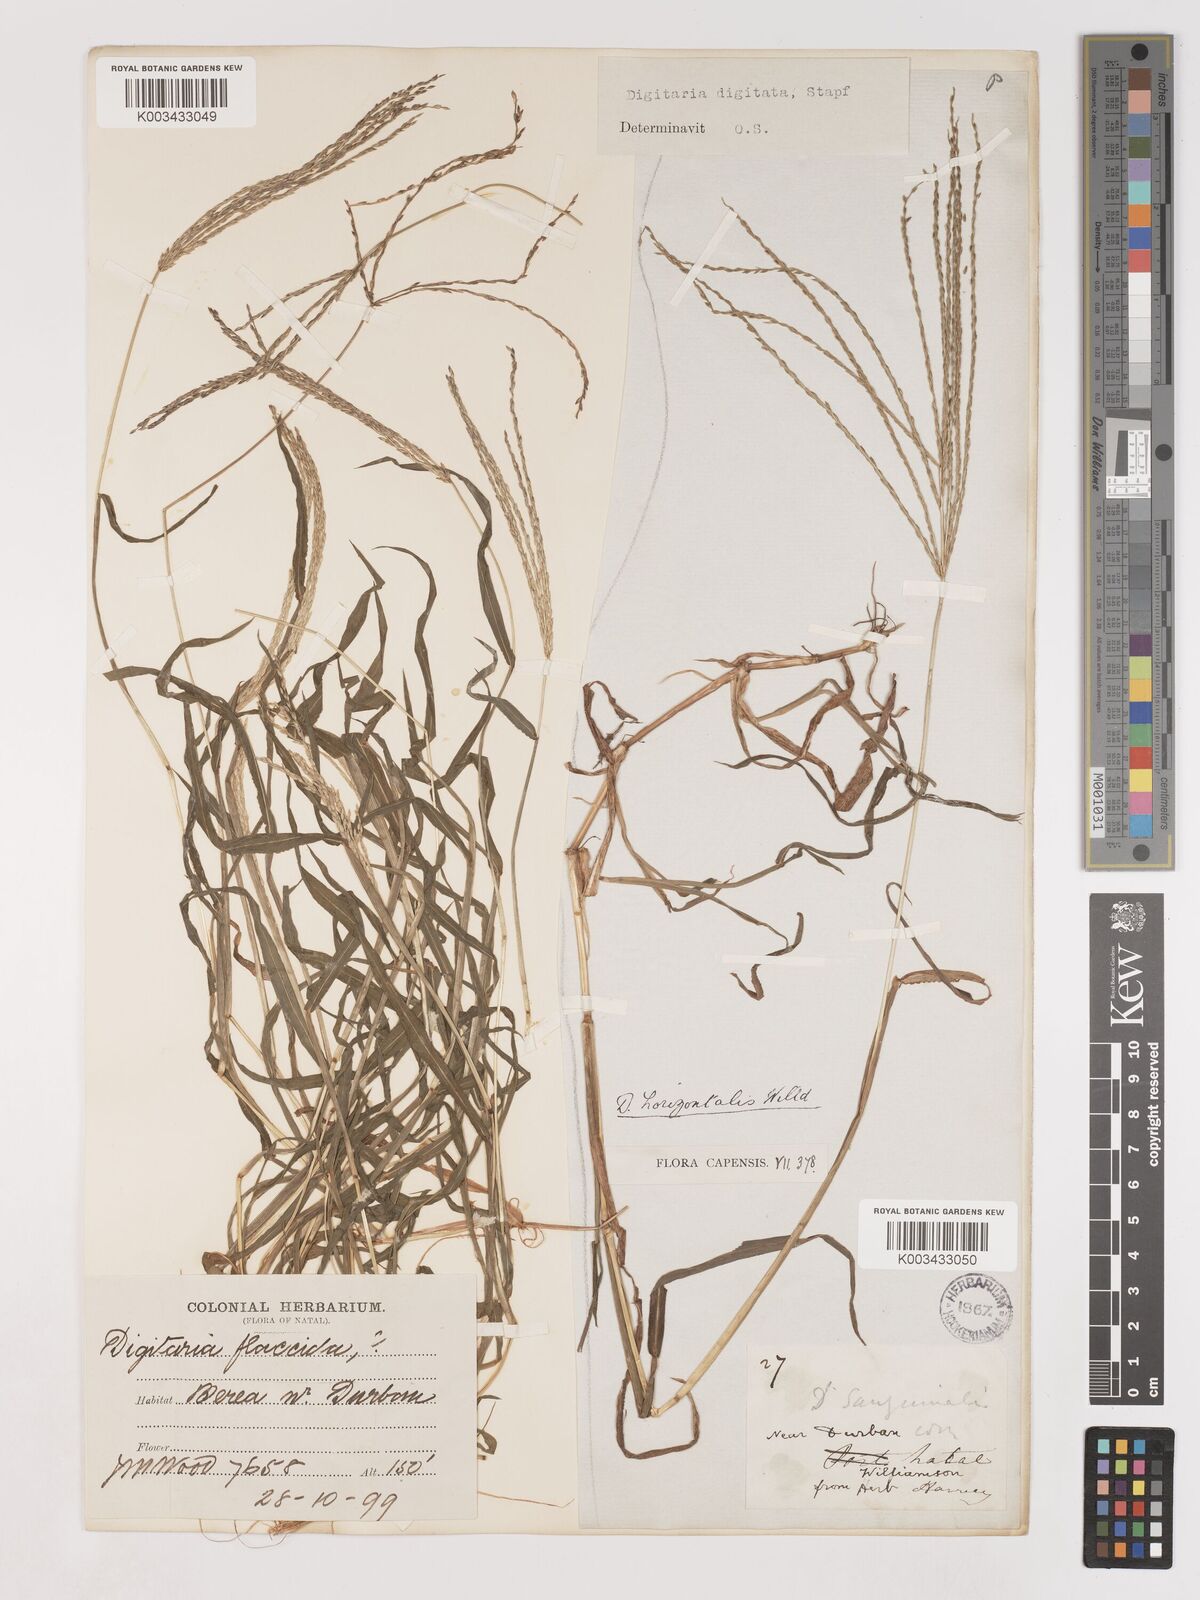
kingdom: Plantae
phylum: Tracheophyta
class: Liliopsida
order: Poales
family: Poaceae
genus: Digitaria
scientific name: Digitaria nuda
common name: Naked crabgrass
